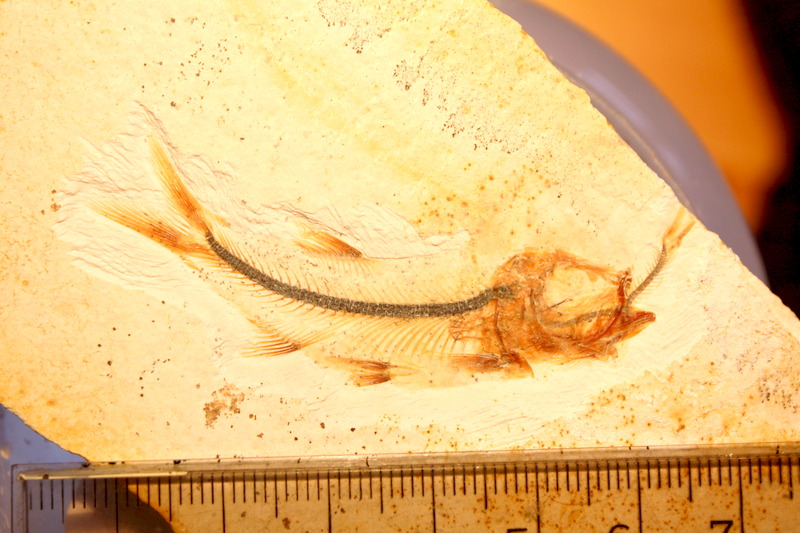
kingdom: Animalia
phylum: Chordata
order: Salmoniformes
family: Orthogonikleithridae
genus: Orthogonikleithrus
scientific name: Orthogonikleithrus hoelli
